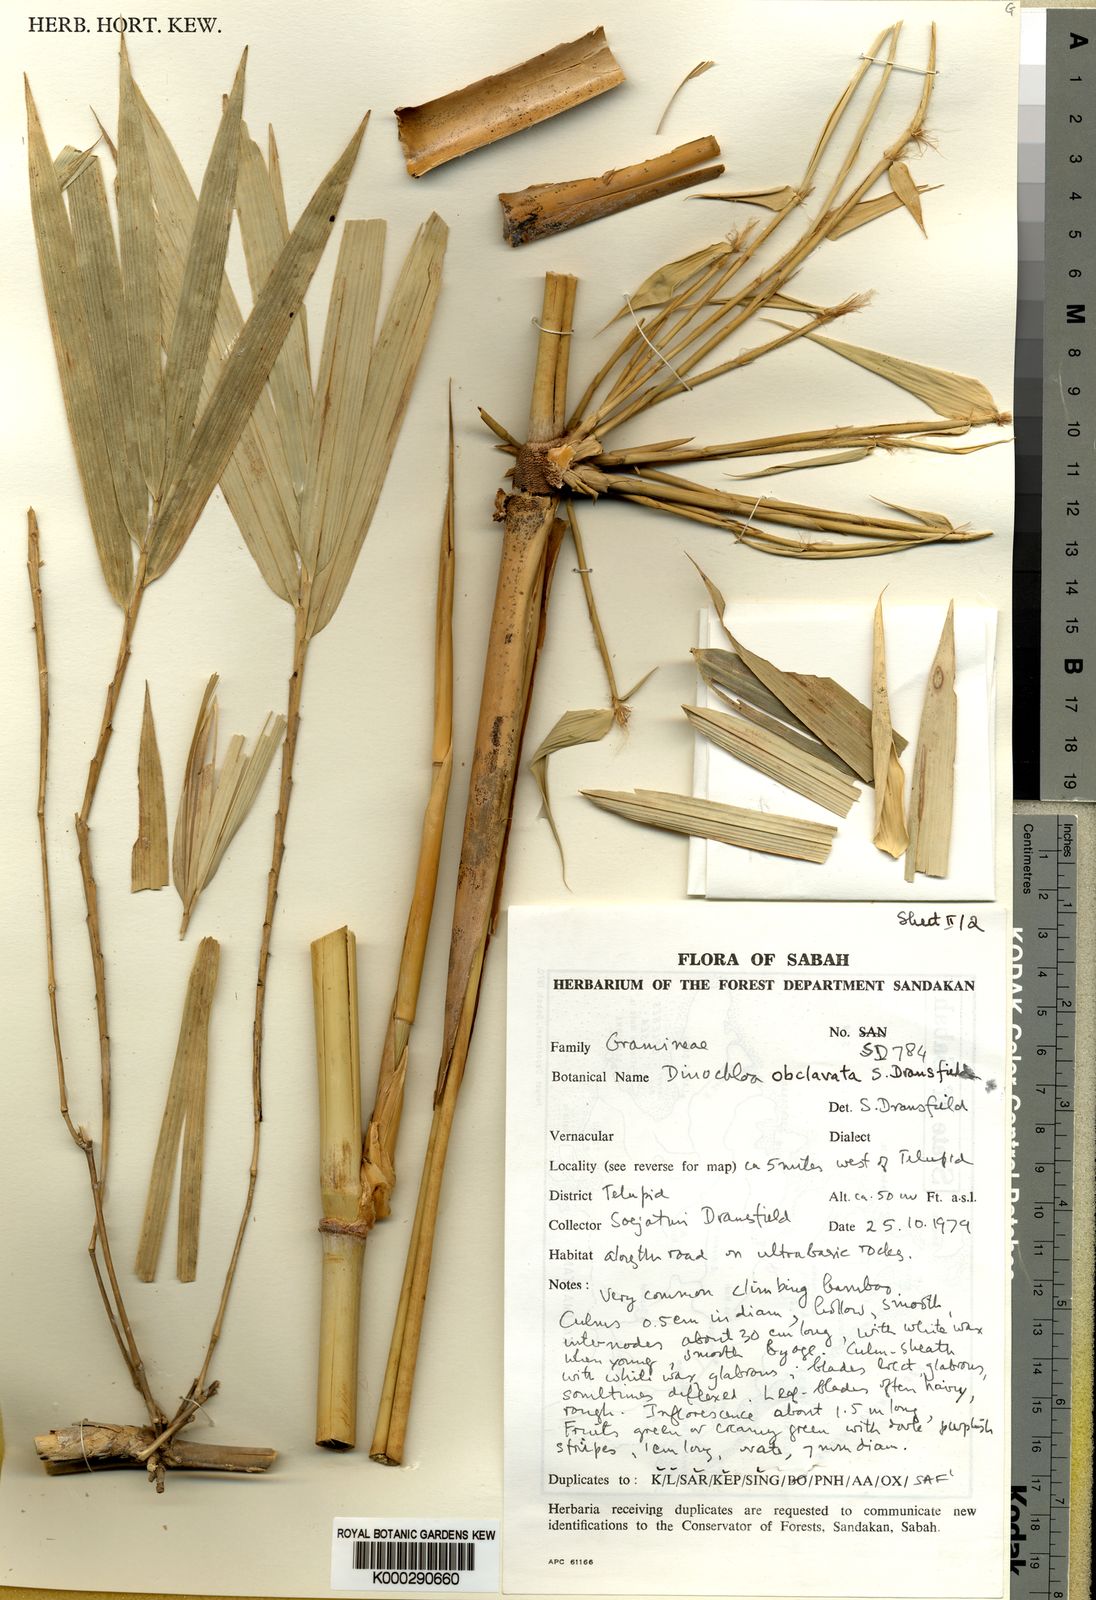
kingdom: Plantae
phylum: Tracheophyta
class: Liliopsida
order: Poales
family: Poaceae
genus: Dinochloa
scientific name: Dinochloa obclavata
